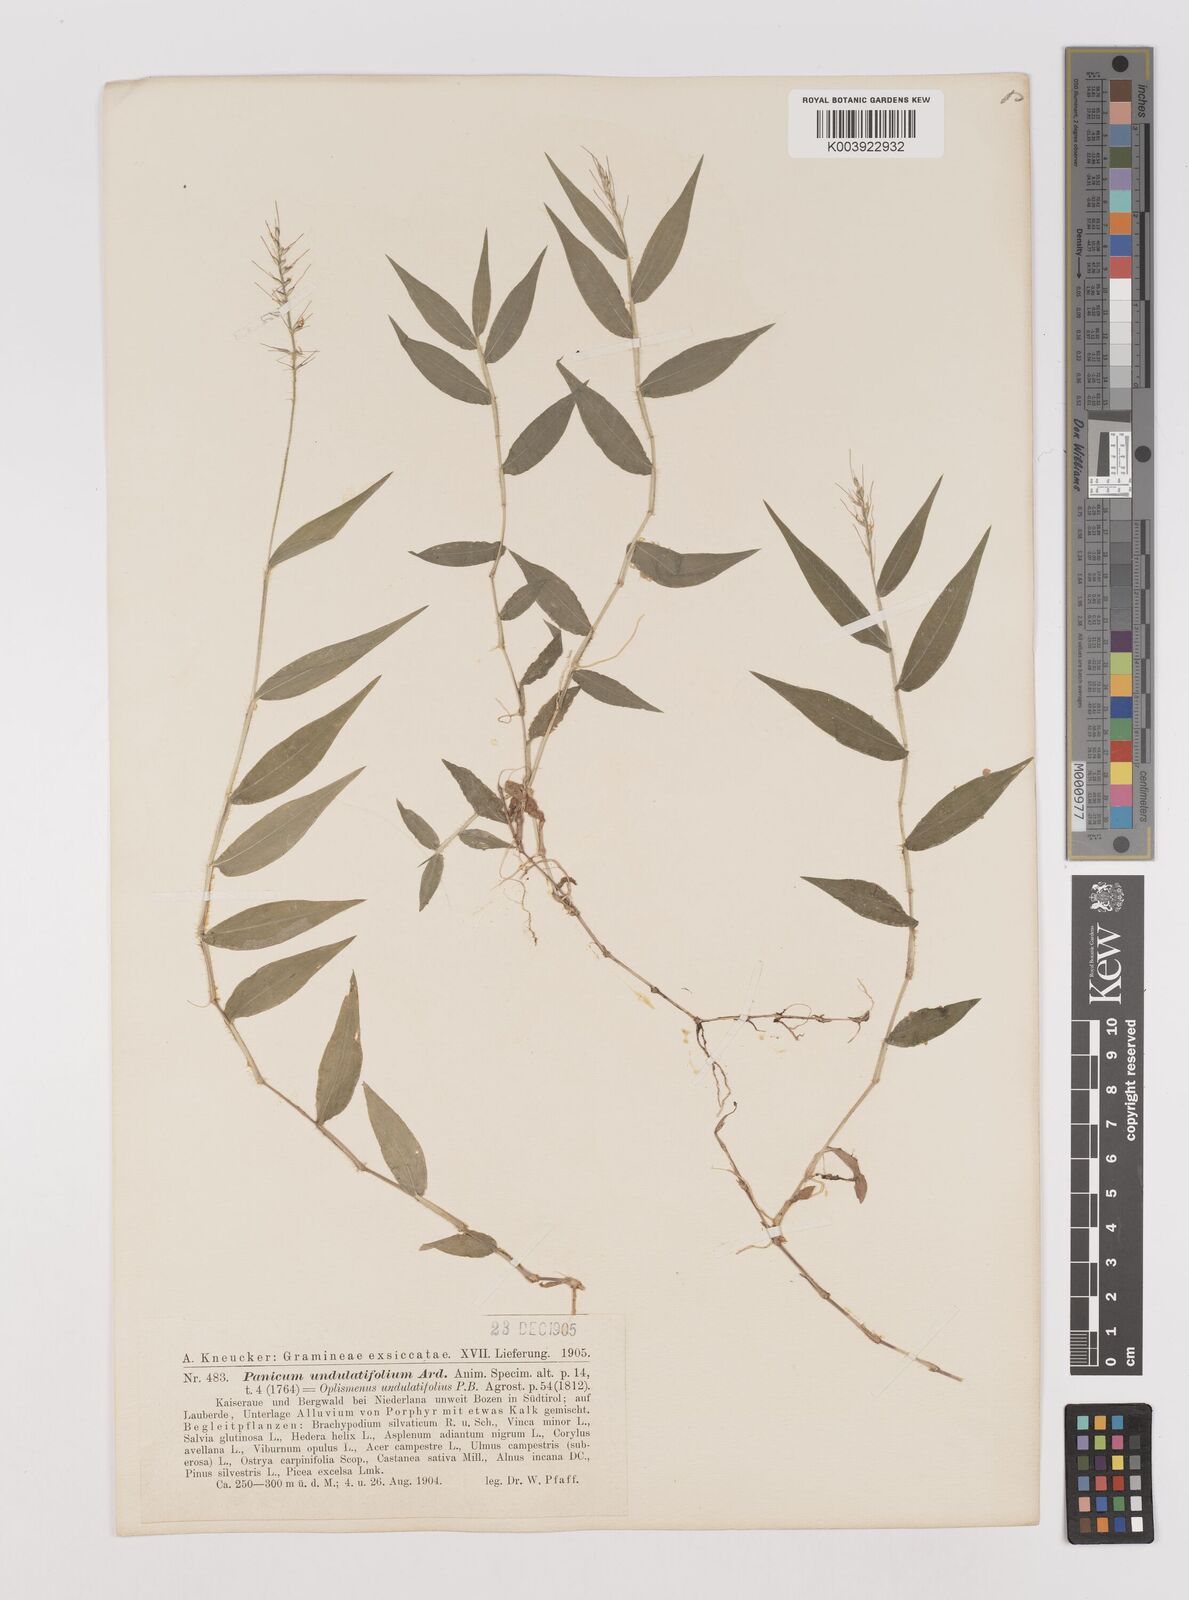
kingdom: Plantae
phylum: Tracheophyta
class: Liliopsida
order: Poales
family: Poaceae
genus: Oplismenus
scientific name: Oplismenus undulatifolius
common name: Wavyleaf basketgrass
